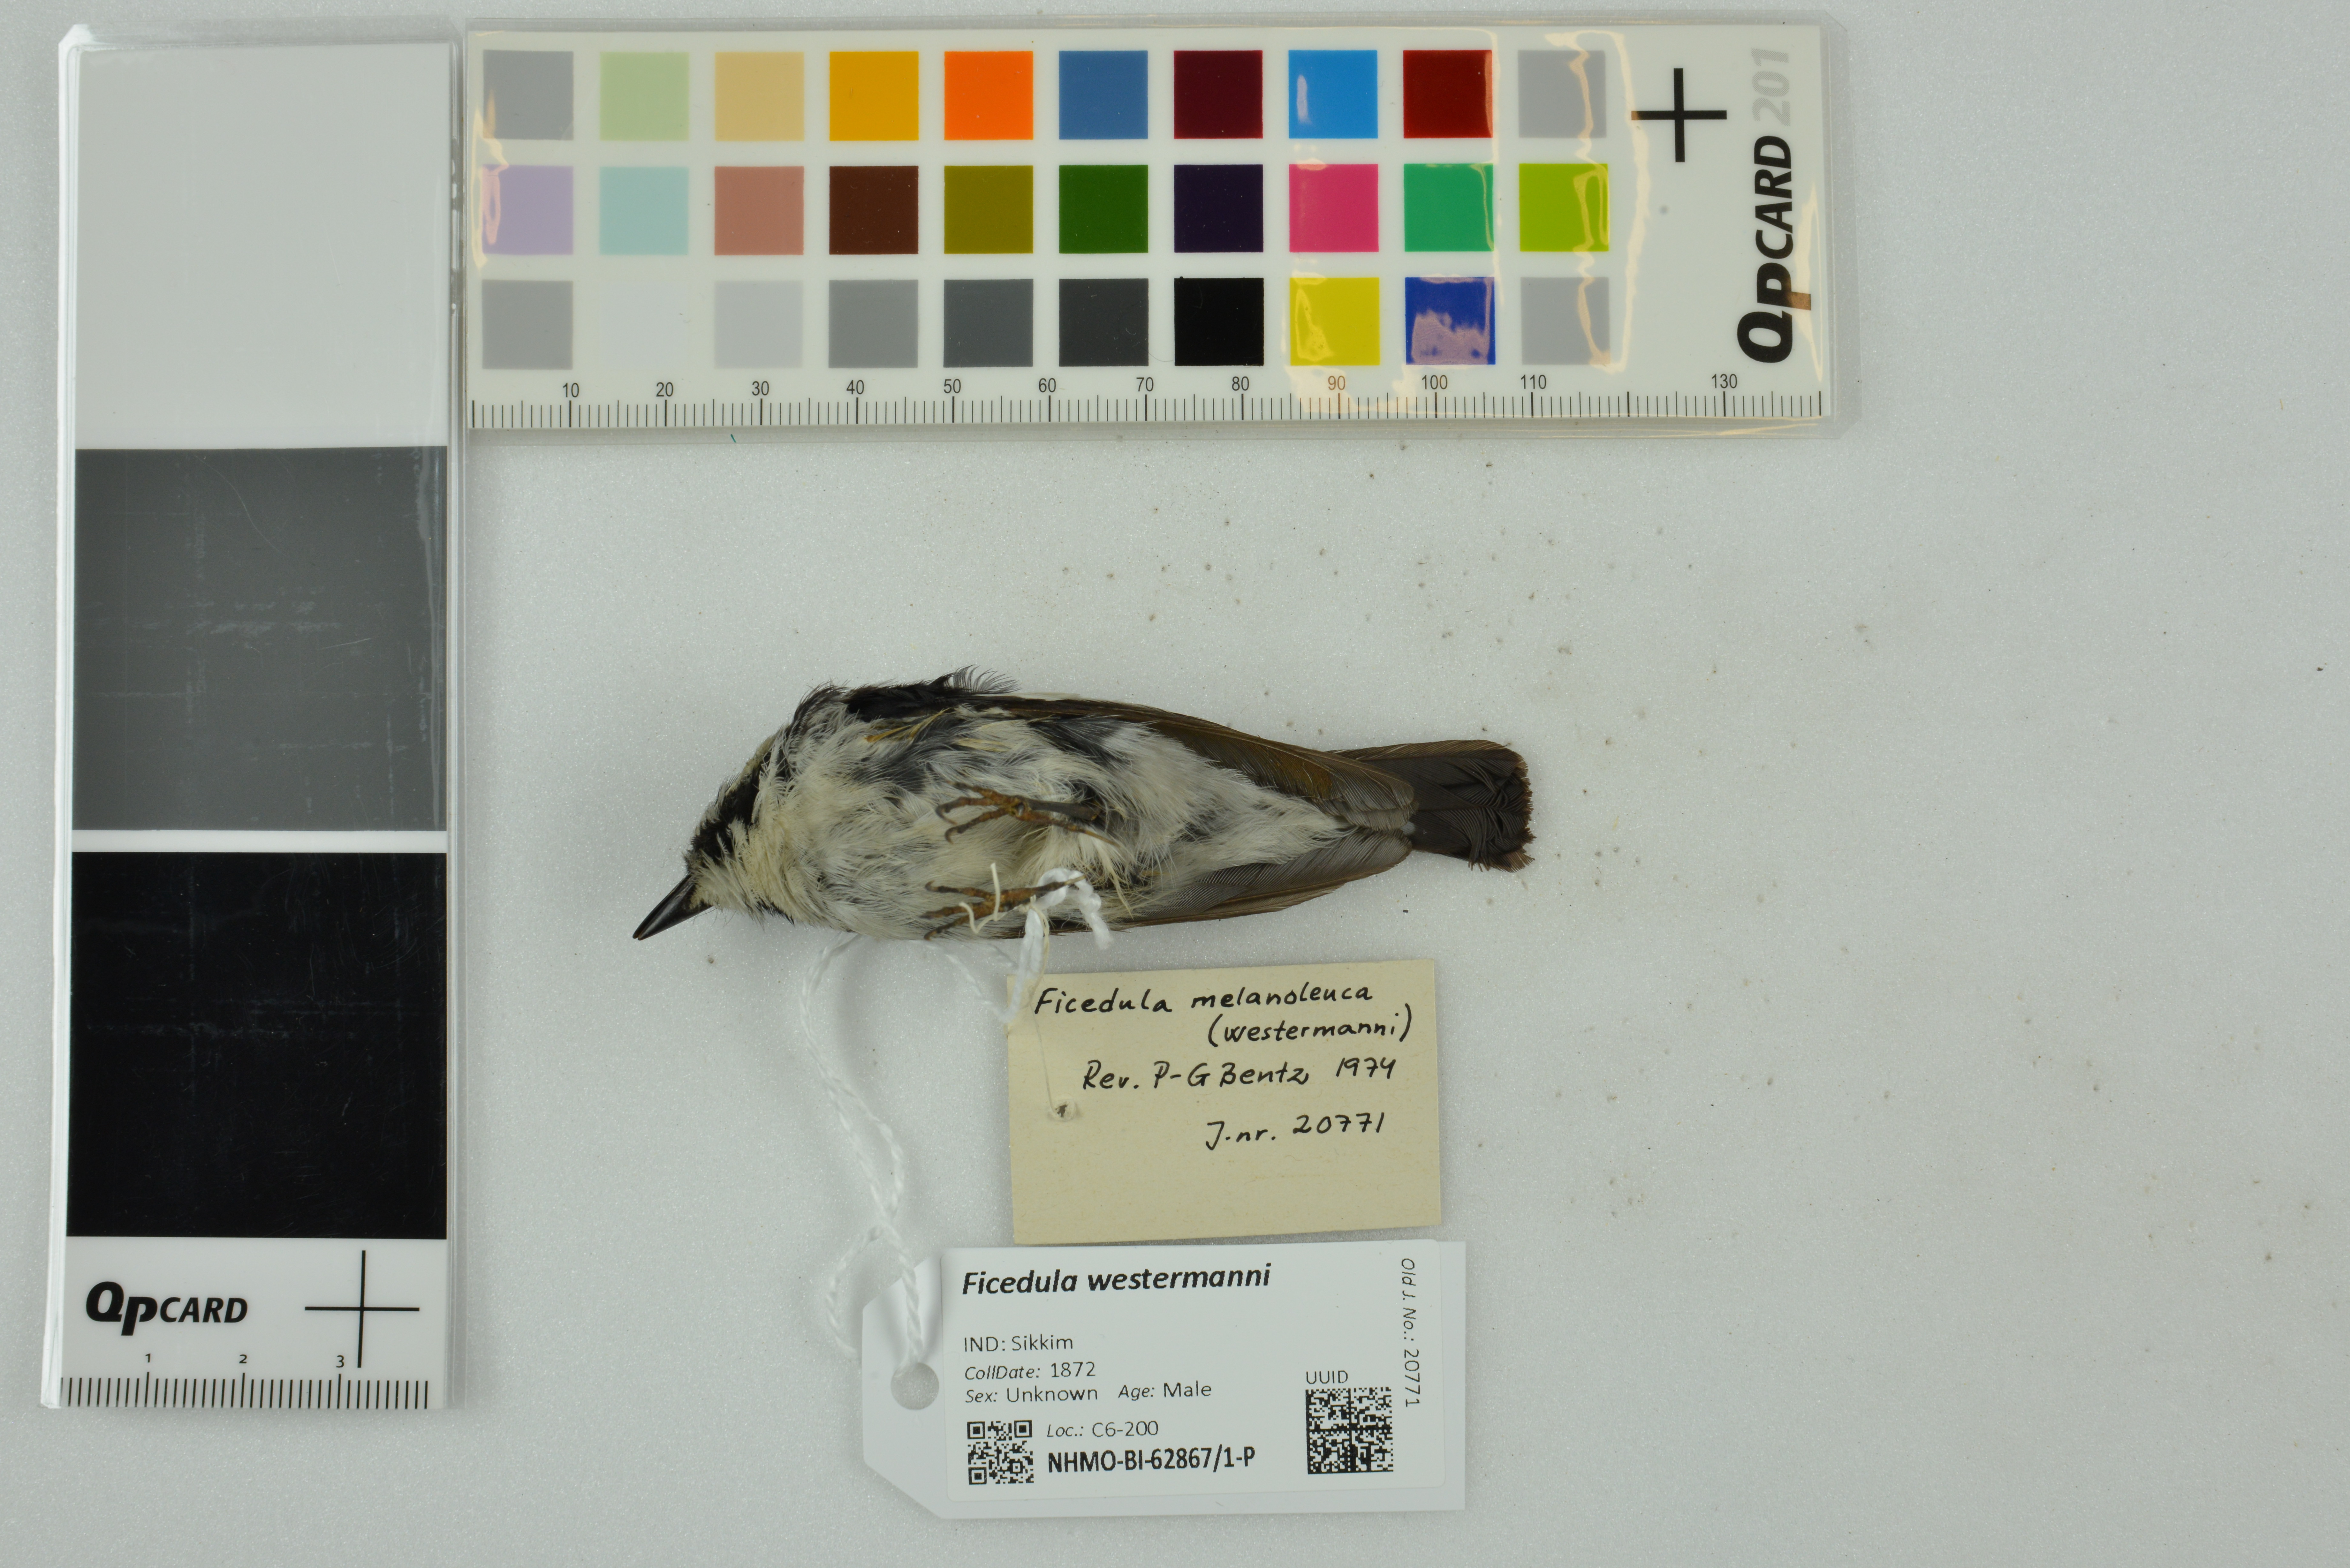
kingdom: Animalia
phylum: Chordata
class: Aves
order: Passeriformes
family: Muscicapidae
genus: Ficedula
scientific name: Ficedula westermanni
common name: Little pied flycatcher
